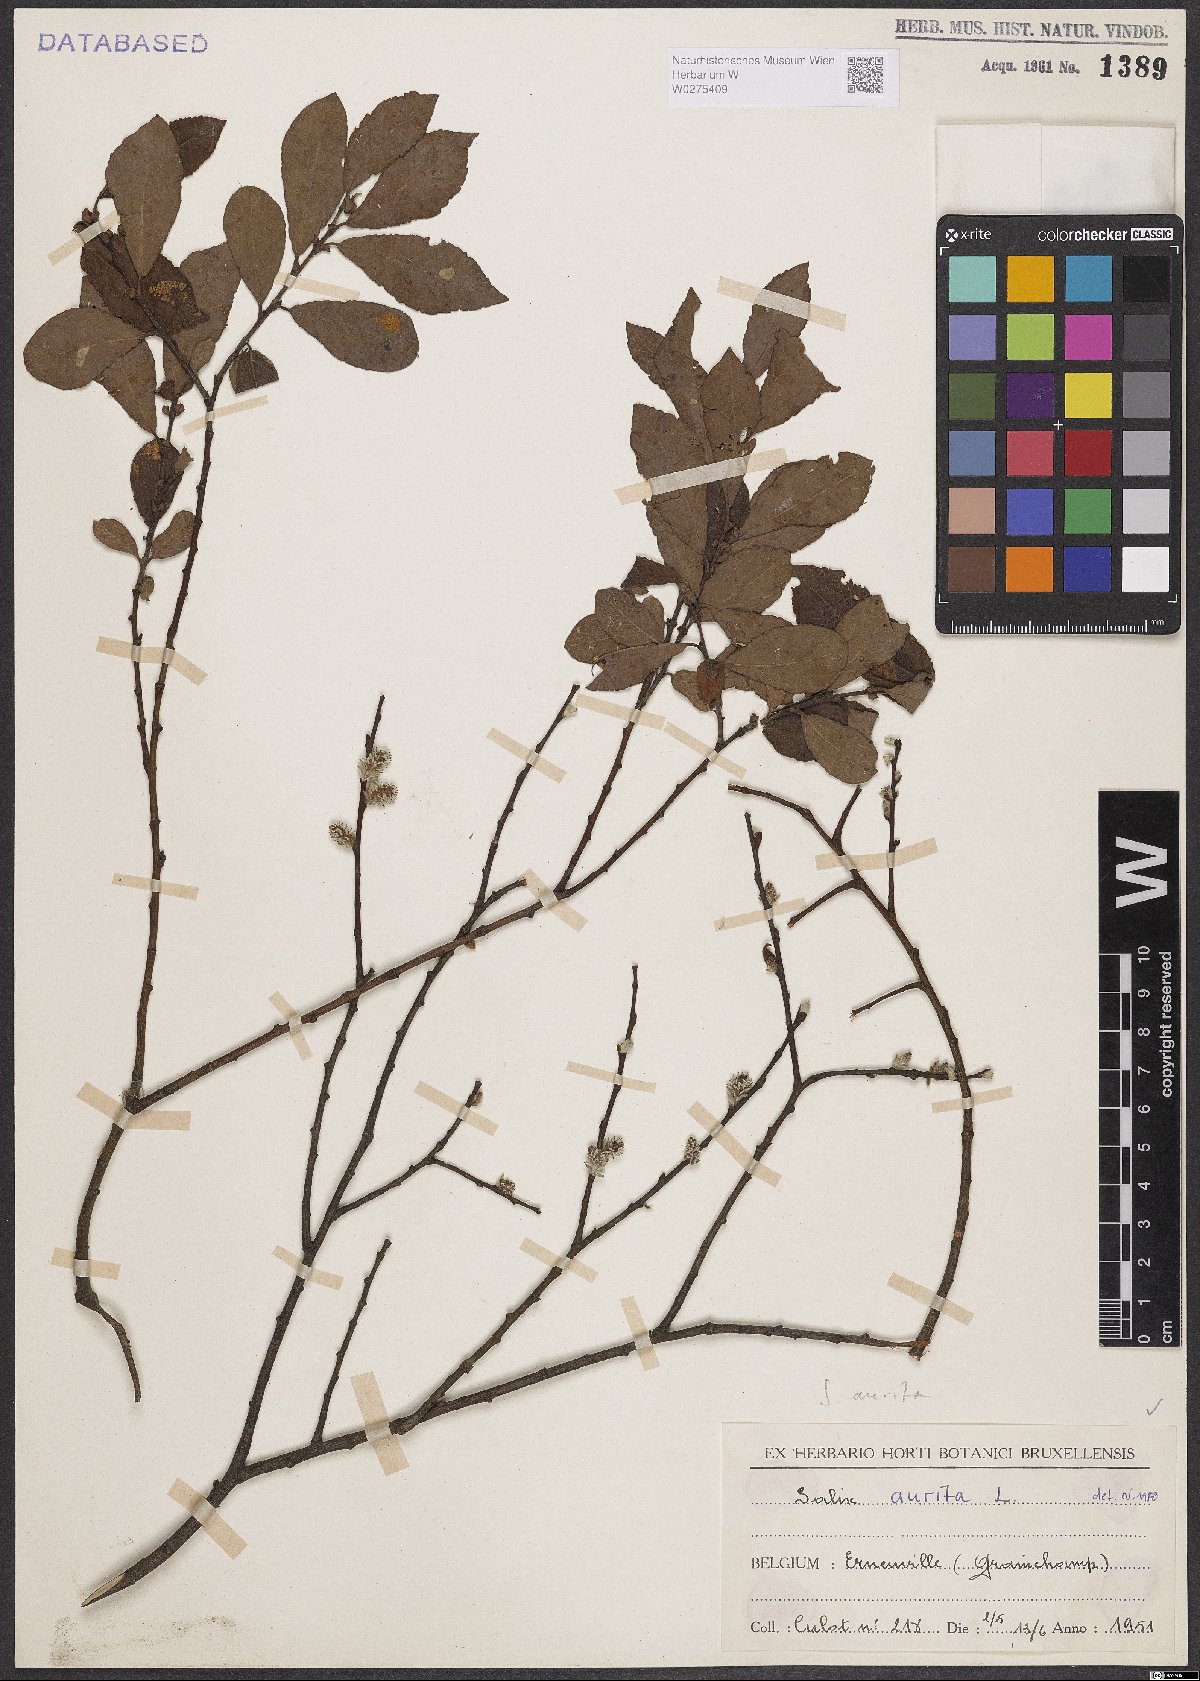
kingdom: Plantae
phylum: Tracheophyta
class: Magnoliopsida
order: Malpighiales
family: Salicaceae
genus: Salix
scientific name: Salix aurita
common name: Eared willow
